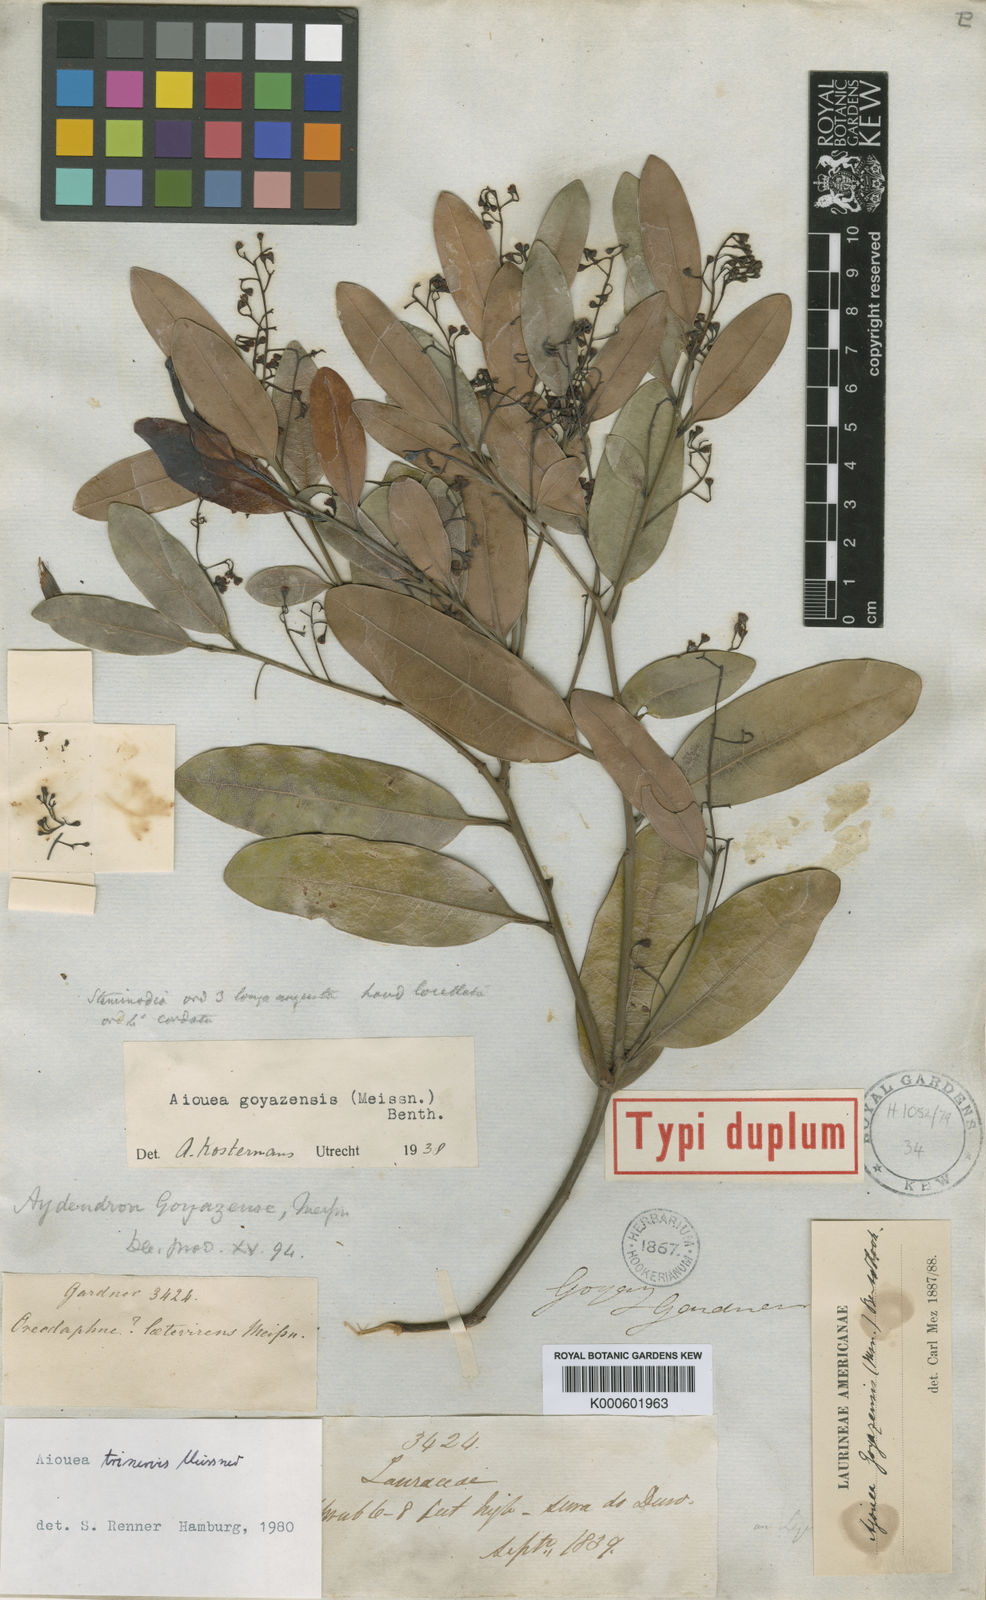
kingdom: Plantae
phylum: Tracheophyta
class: Magnoliopsida
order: Laurales
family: Lauraceae
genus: Aiouea
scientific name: Aiouea trinervis
